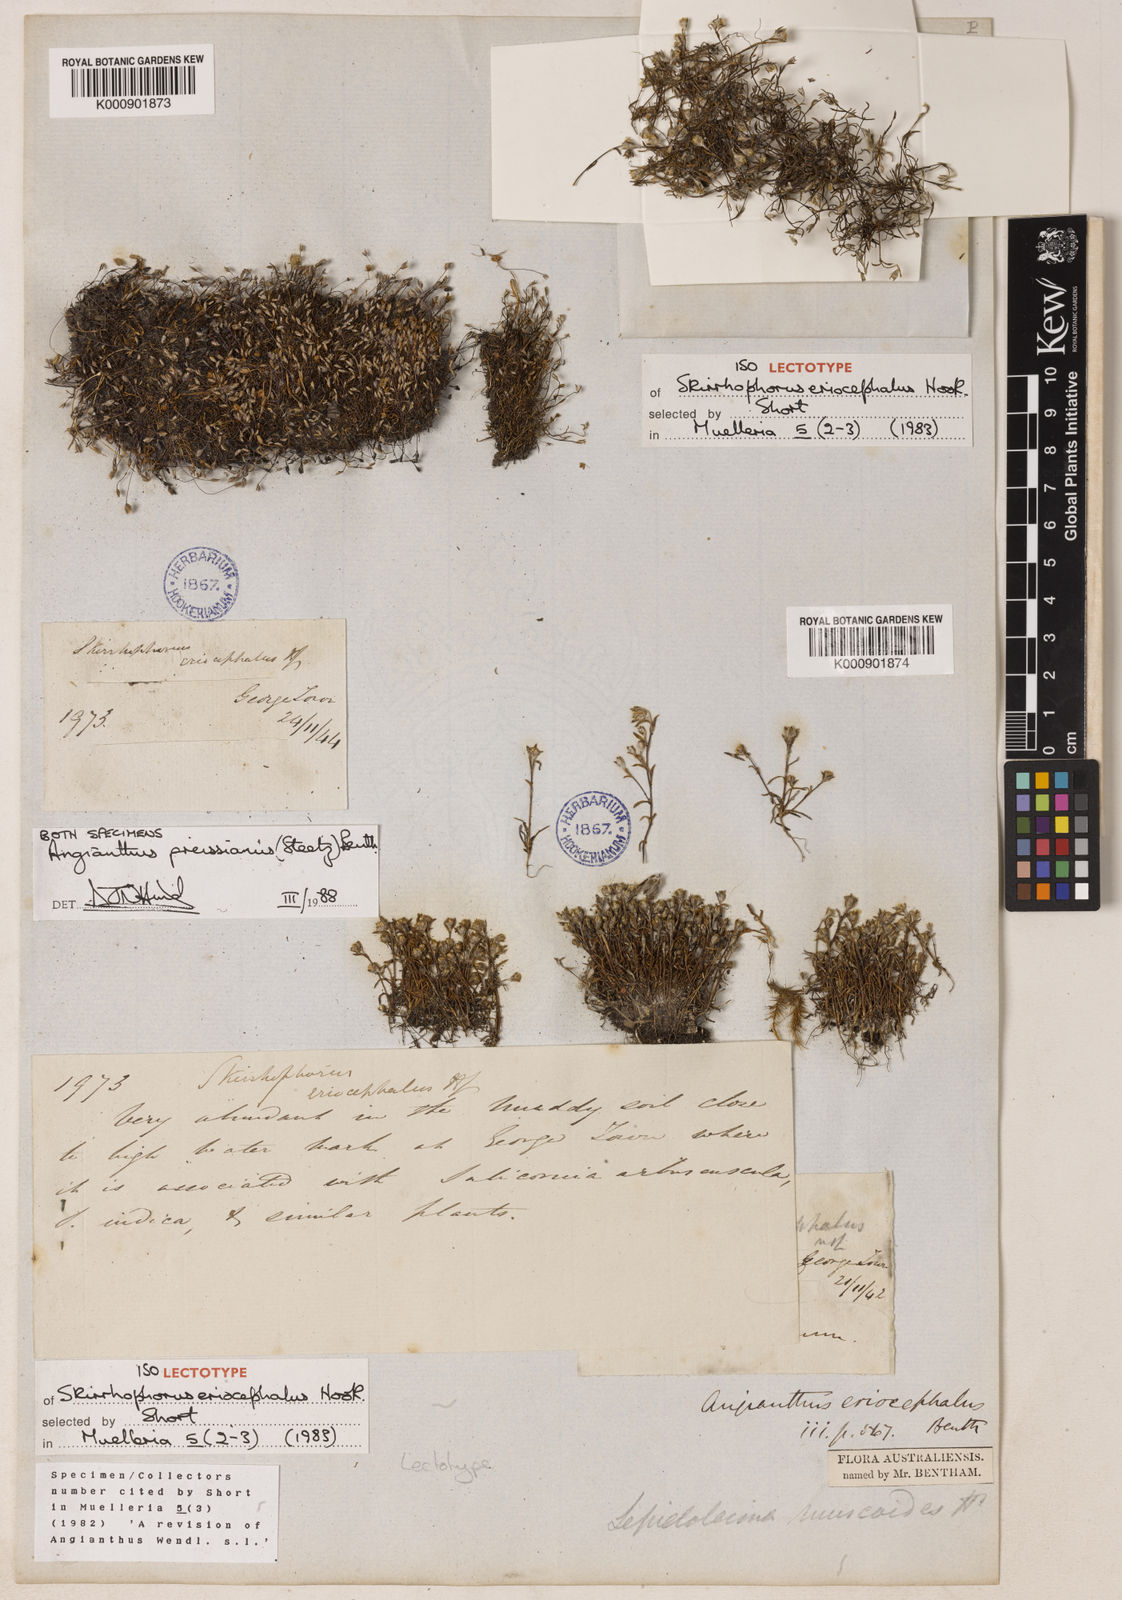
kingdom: Plantae
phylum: Tracheophyta
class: Magnoliopsida
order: Asterales
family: Asteraceae
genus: Angianthus
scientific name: Angianthus preissianus
